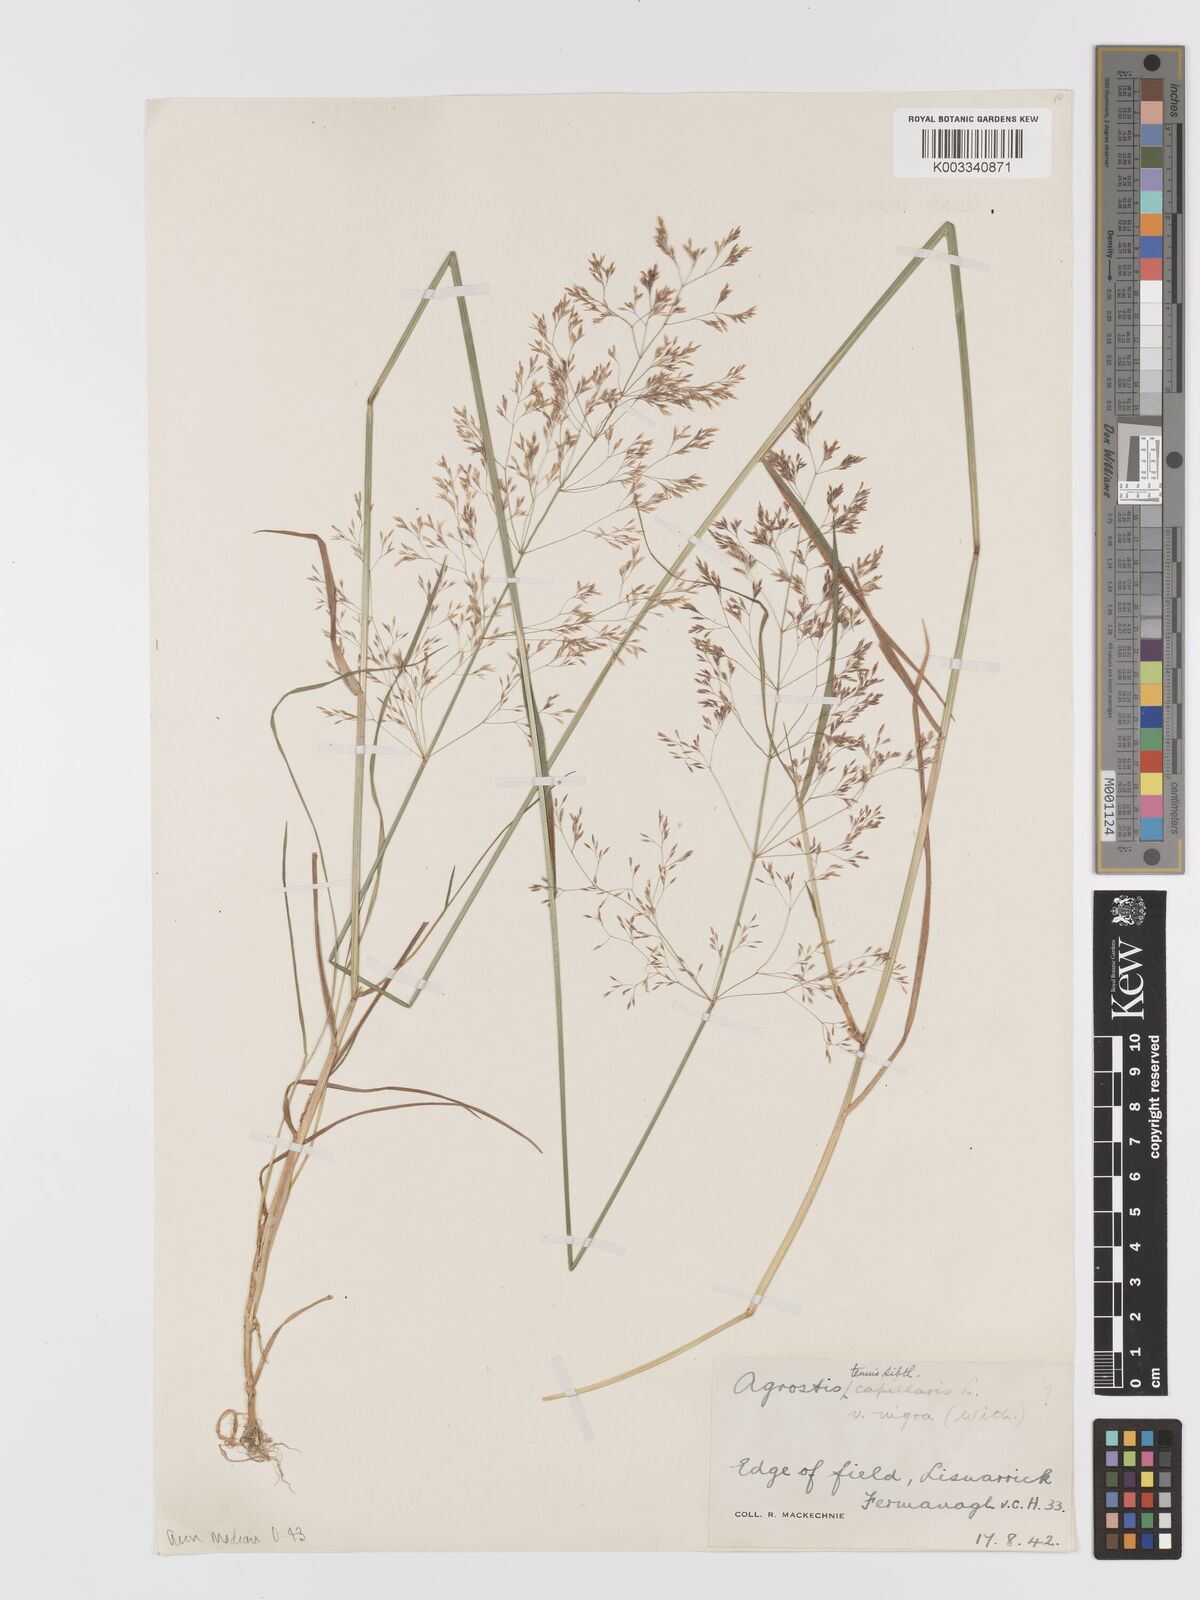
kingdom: Plantae
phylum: Tracheophyta
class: Liliopsida
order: Poales
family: Poaceae
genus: Agrostis
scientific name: Agrostis capillaris
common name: Colonial bentgrass
